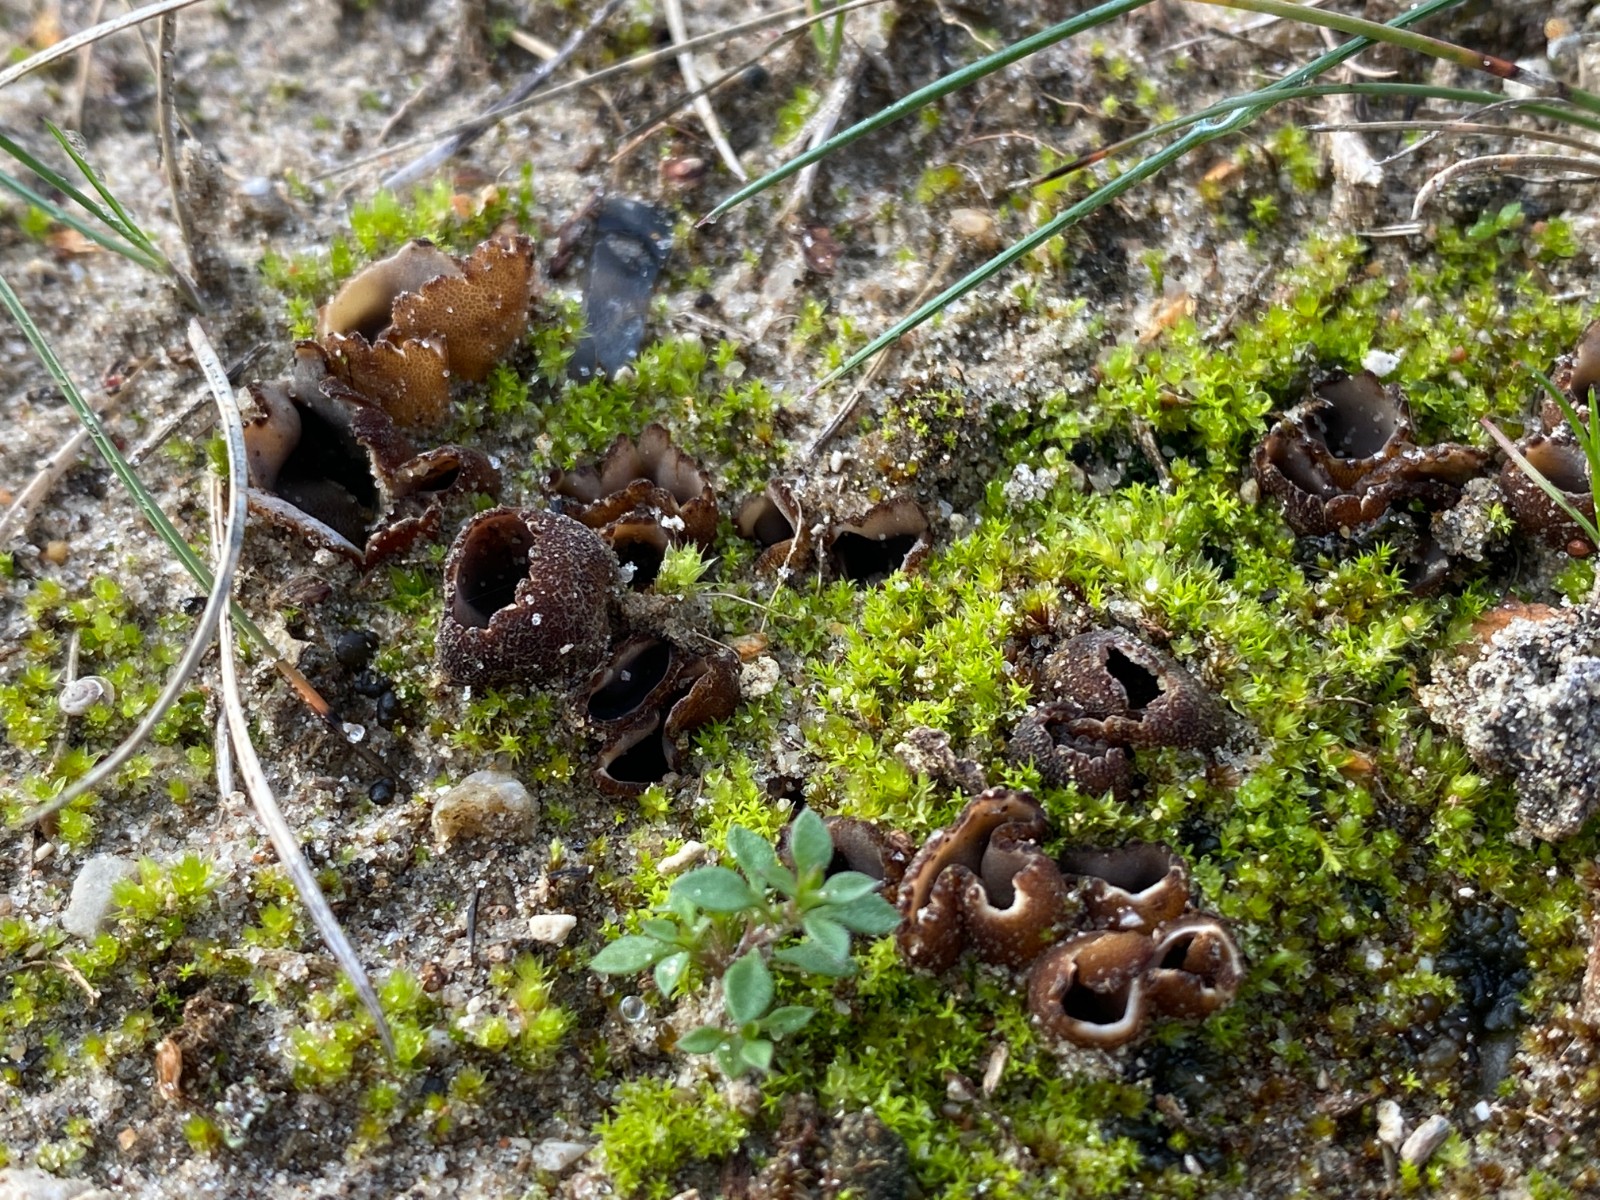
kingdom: Fungi
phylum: Ascomycota
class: Pezizomycetes
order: Pezizales
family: Pyronemataceae
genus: Geopora
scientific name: Geopora arenicola
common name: trøffel-jordbæger
